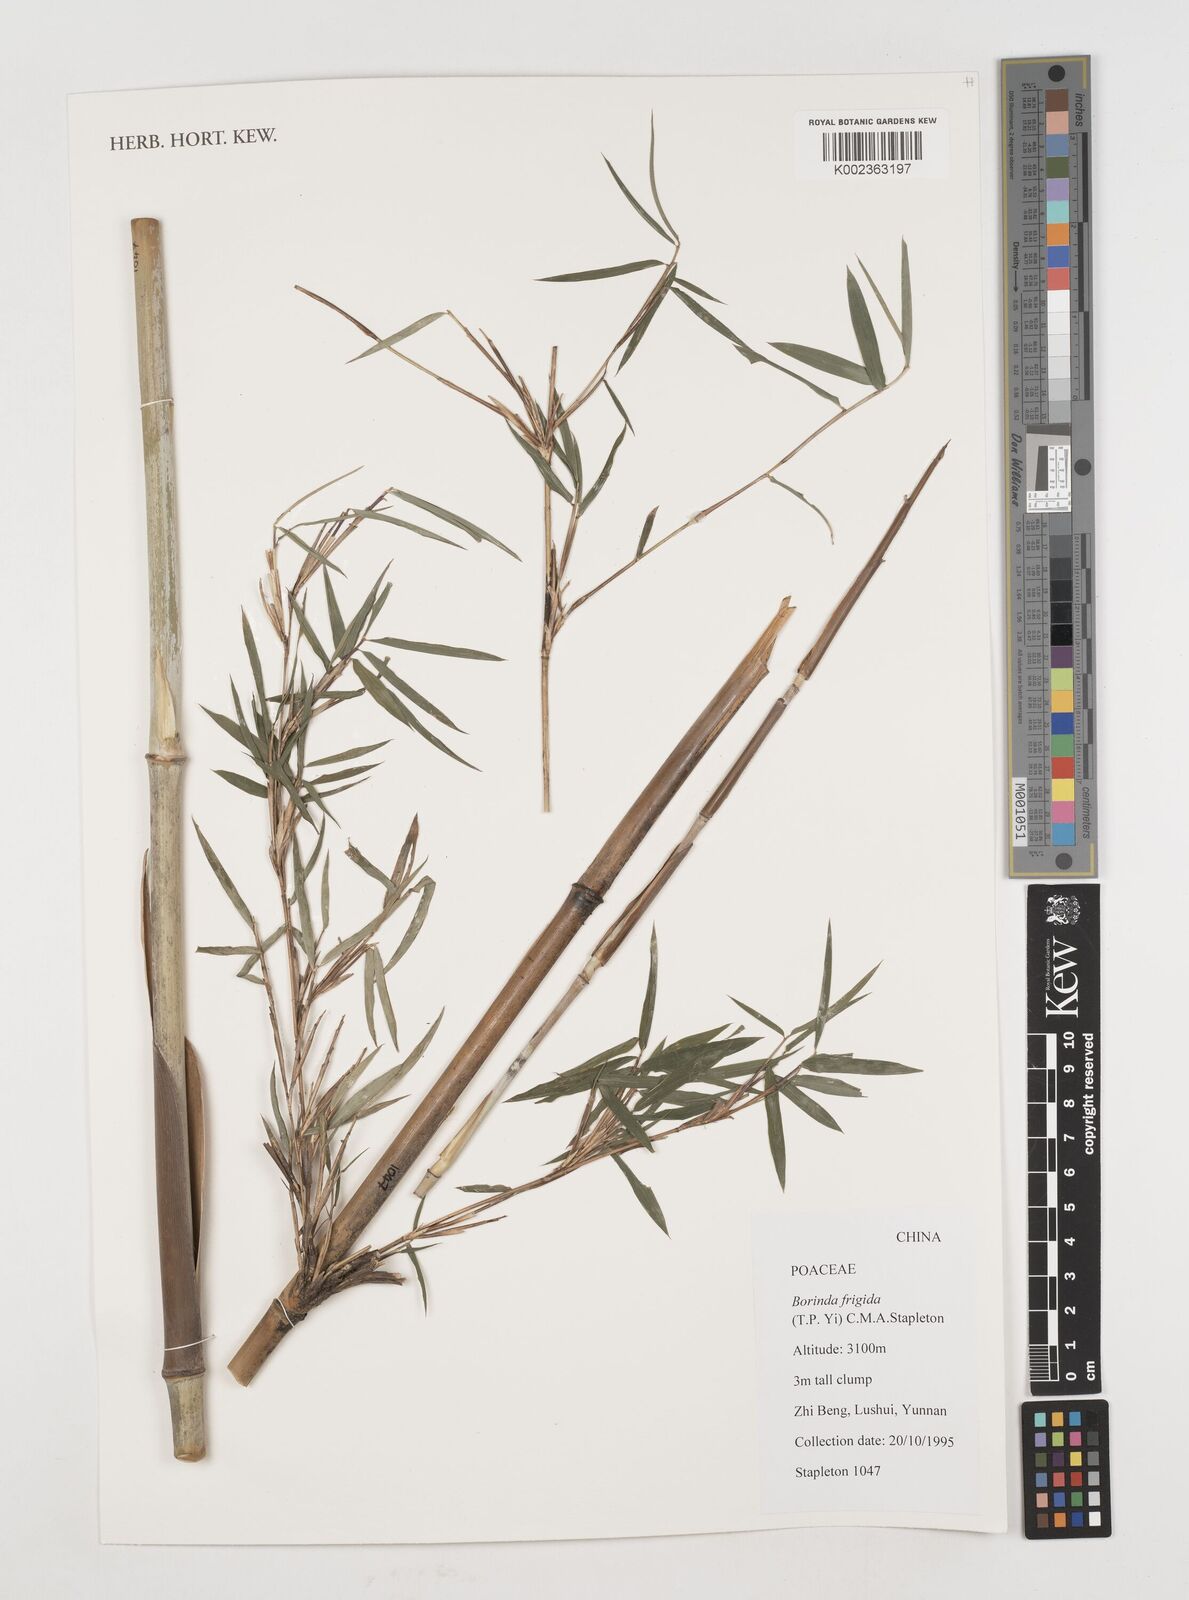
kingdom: Plantae
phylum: Tracheophyta
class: Liliopsida
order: Poales
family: Poaceae
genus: Fargesia
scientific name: Fargesia
